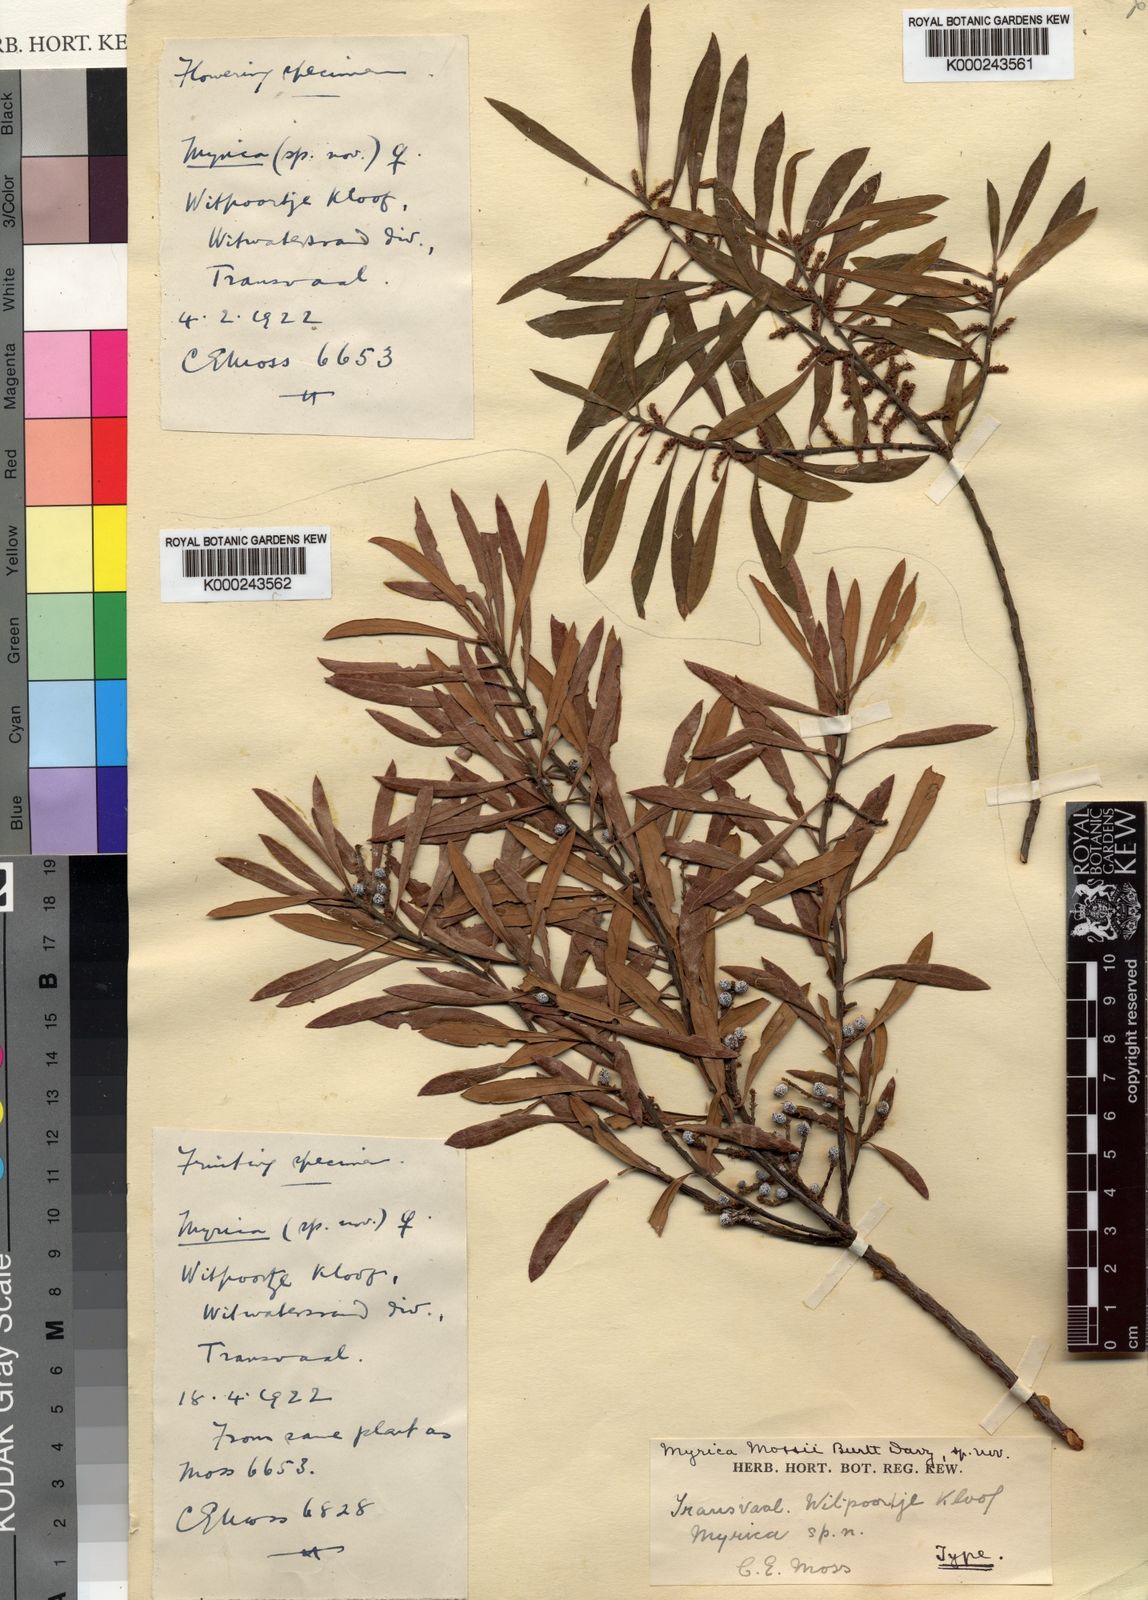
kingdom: Plantae
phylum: Tracheophyta
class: Magnoliopsida
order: Fagales
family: Myricaceae
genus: Myrica
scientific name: Myrica
